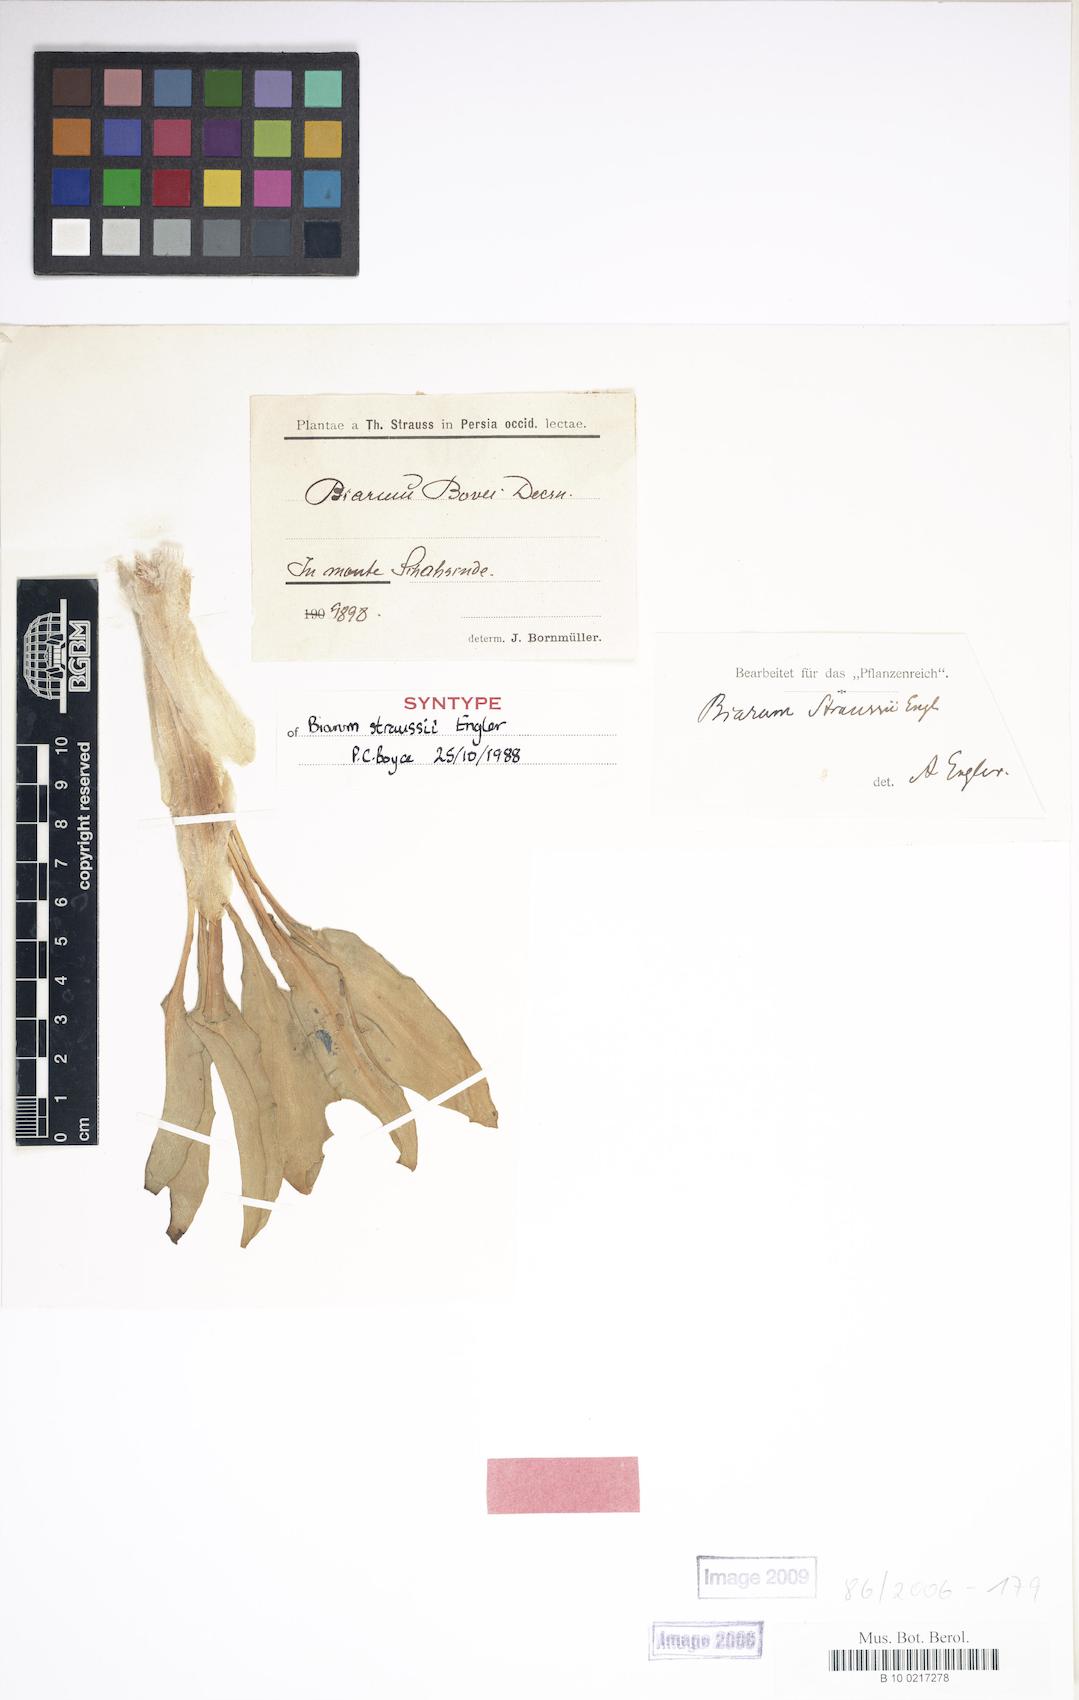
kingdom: Plantae
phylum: Tracheophyta
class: Liliopsida
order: Alismatales
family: Araceae
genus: Biarum
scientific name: Biarum straussii
